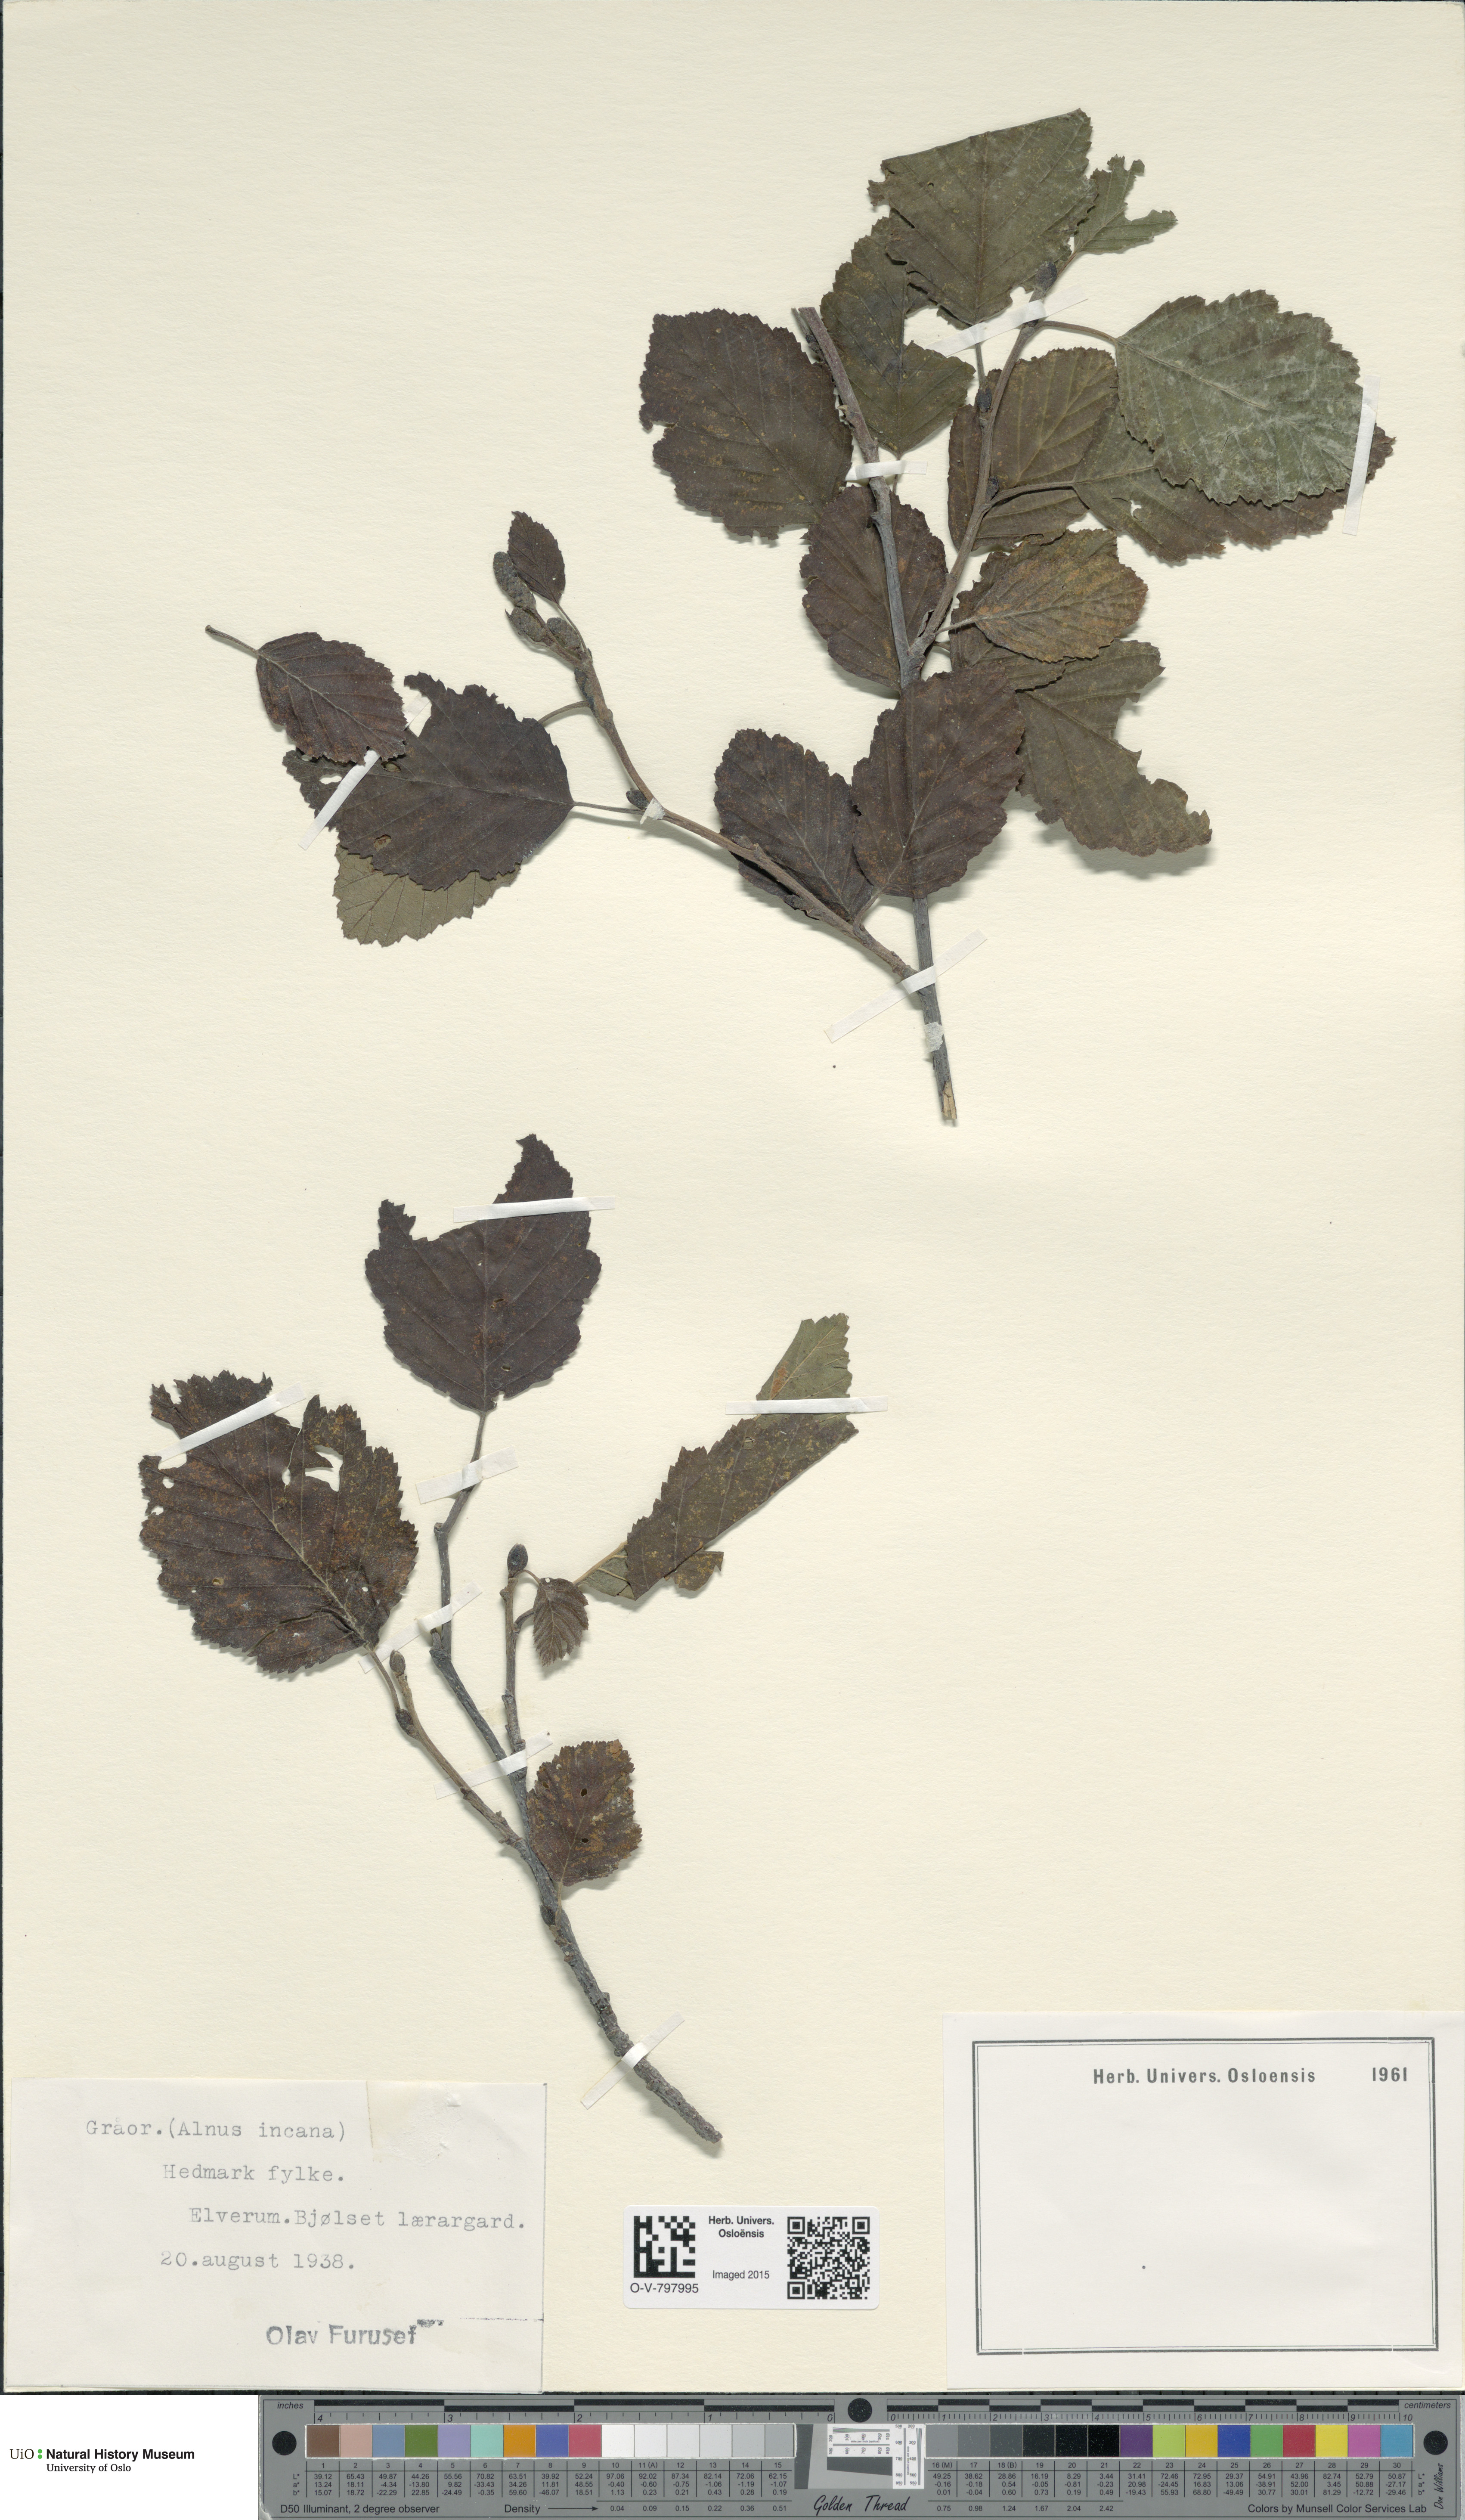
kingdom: Plantae
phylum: Tracheophyta
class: Magnoliopsida
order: Fagales
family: Betulaceae
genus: Alnus
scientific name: Alnus incana
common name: Grey alder
